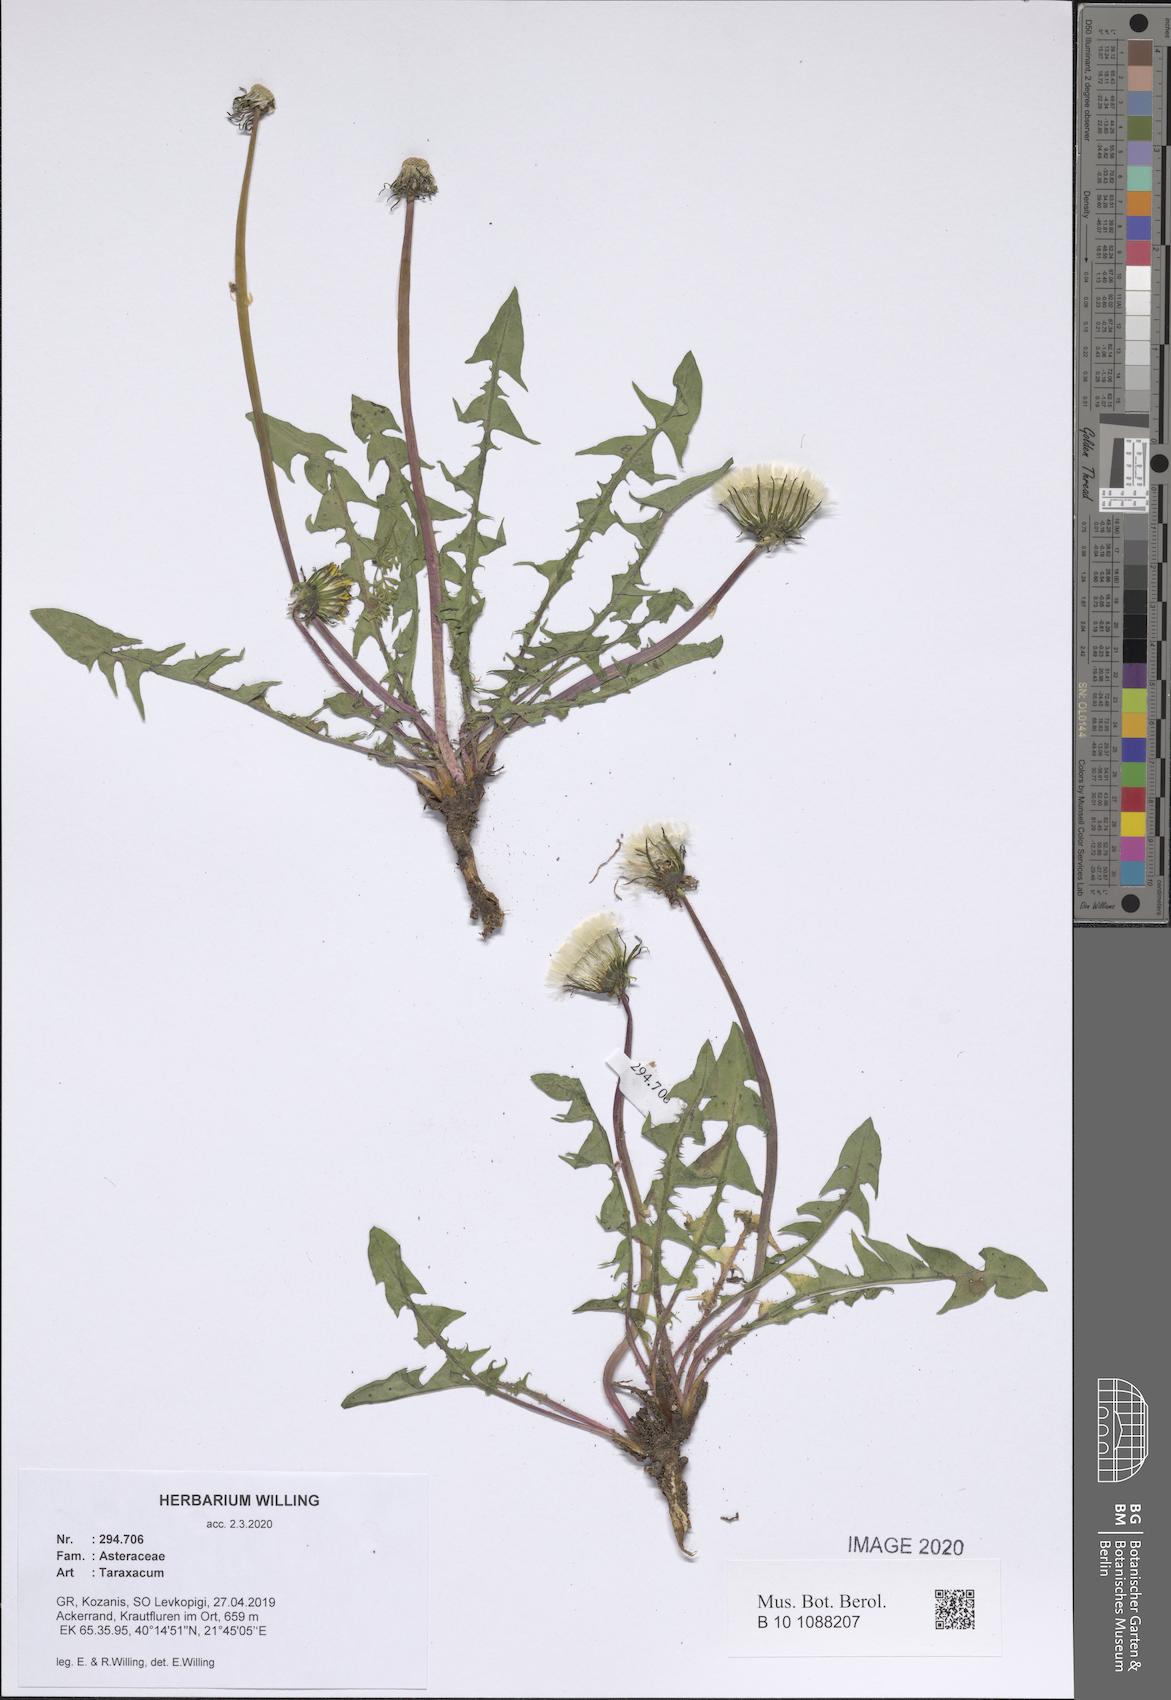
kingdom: Plantae
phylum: Tracheophyta
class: Magnoliopsida
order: Asterales
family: Asteraceae
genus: Taraxacum
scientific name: Taraxacum
